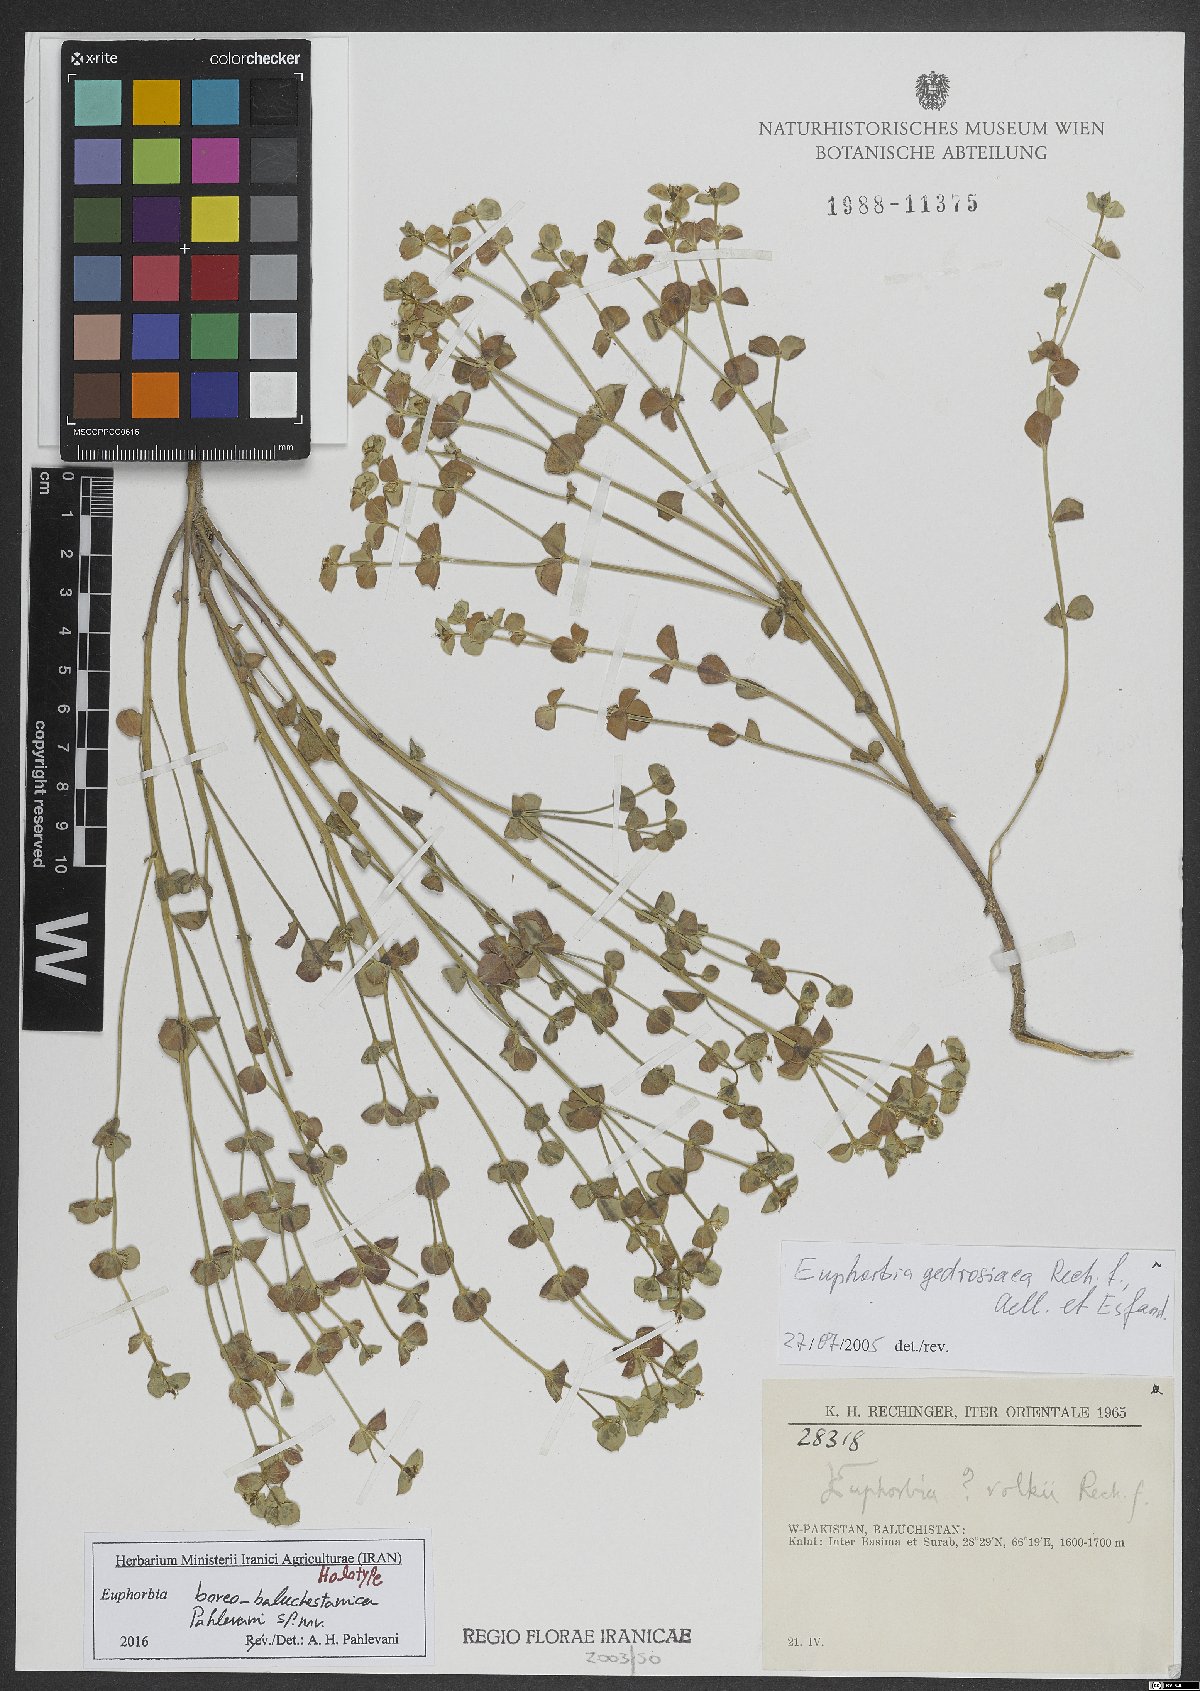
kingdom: Plantae
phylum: Tracheophyta
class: Magnoliopsida
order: Malpighiales
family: Euphorbiaceae
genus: Euphorbia
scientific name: Euphorbia boreobaluchestanica
